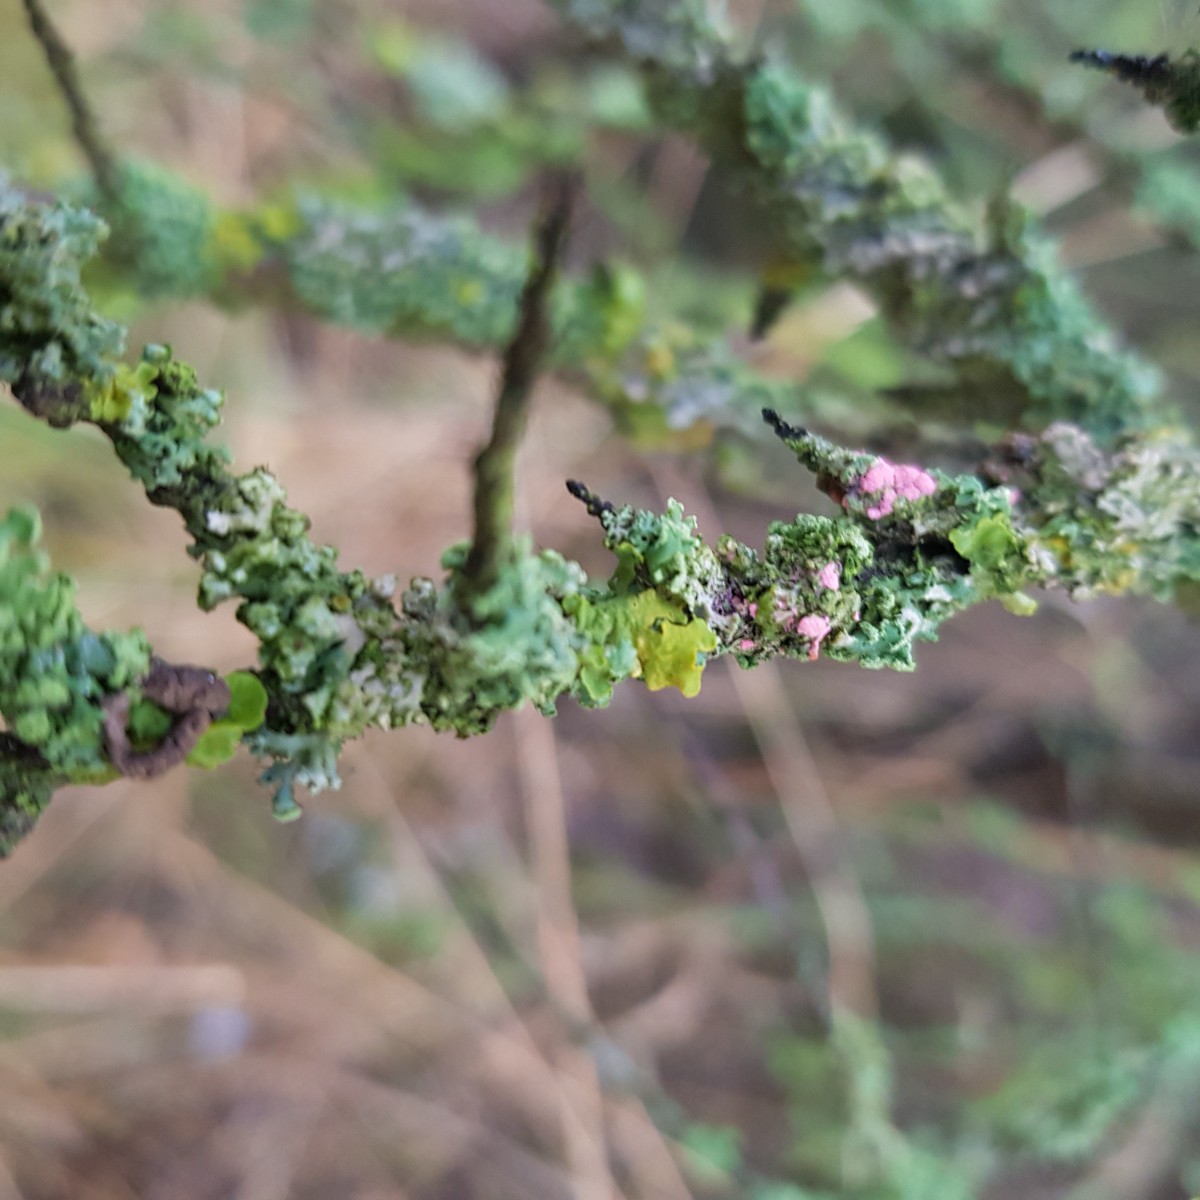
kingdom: Fungi
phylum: Ascomycota
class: Sordariomycetes
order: Hypocreales
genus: Illosporiopsis
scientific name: Illosporiopsis christiansenii
